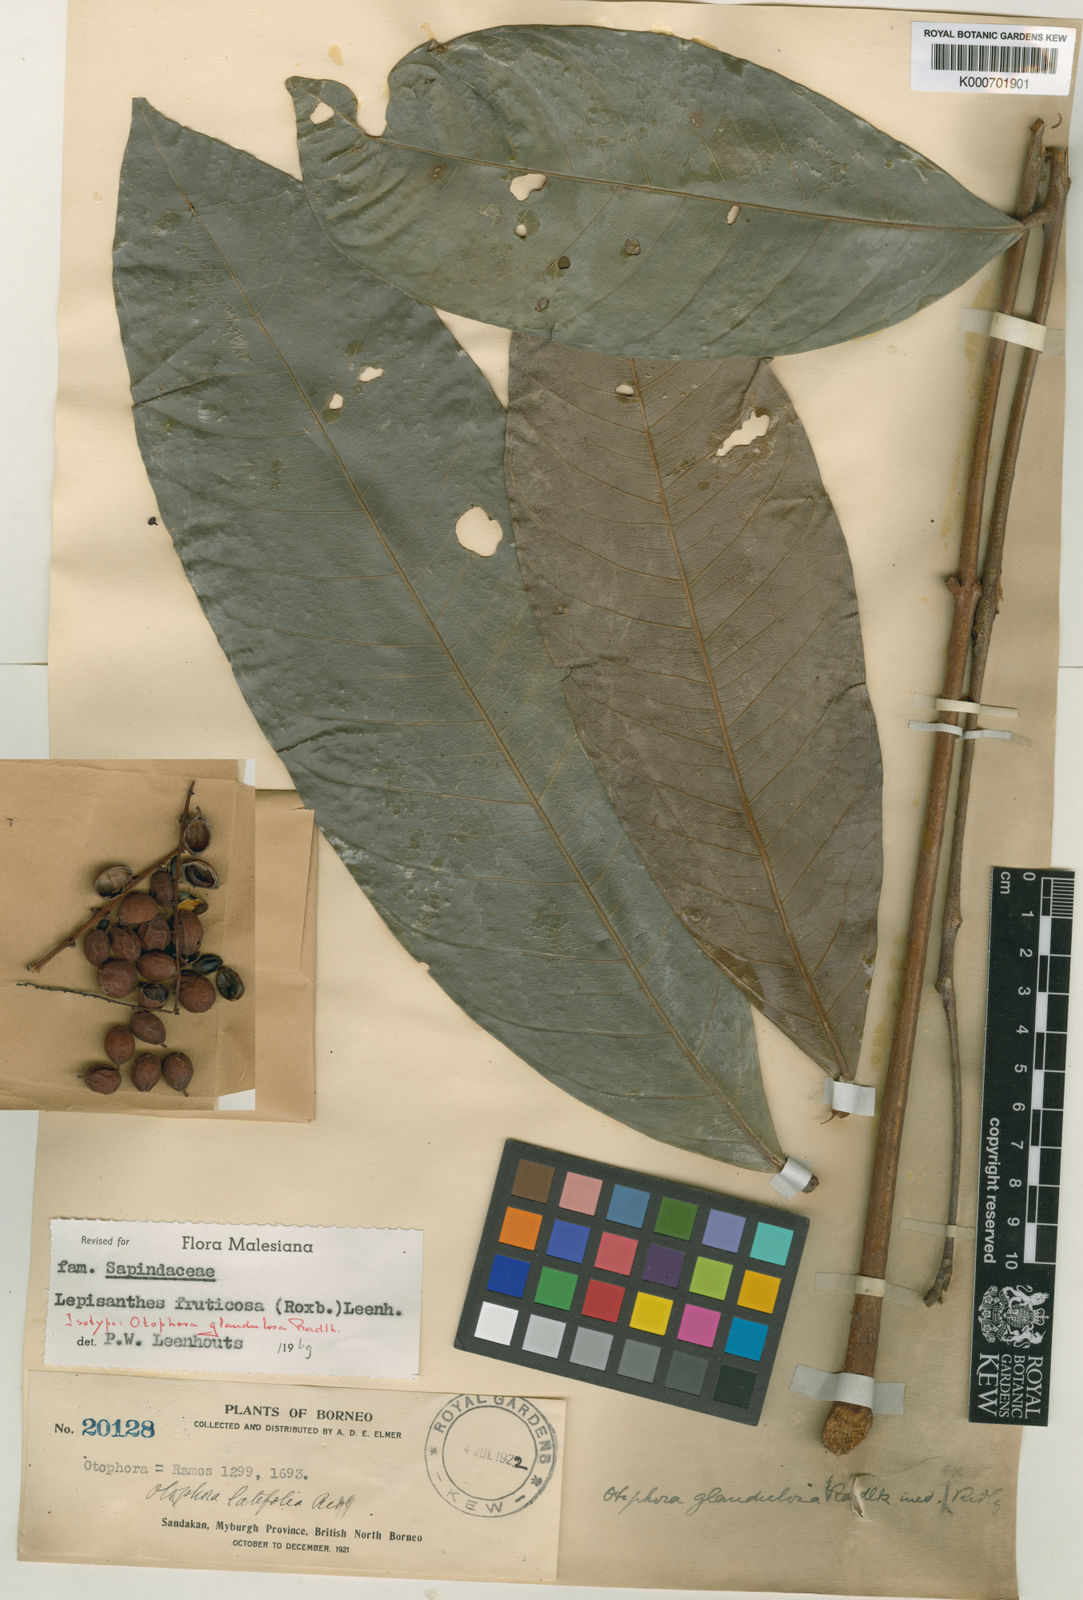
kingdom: Plantae
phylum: Tracheophyta
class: Magnoliopsida
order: Sapindales
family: Sapindaceae
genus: Lepisanthes
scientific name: Lepisanthes fruticosa
